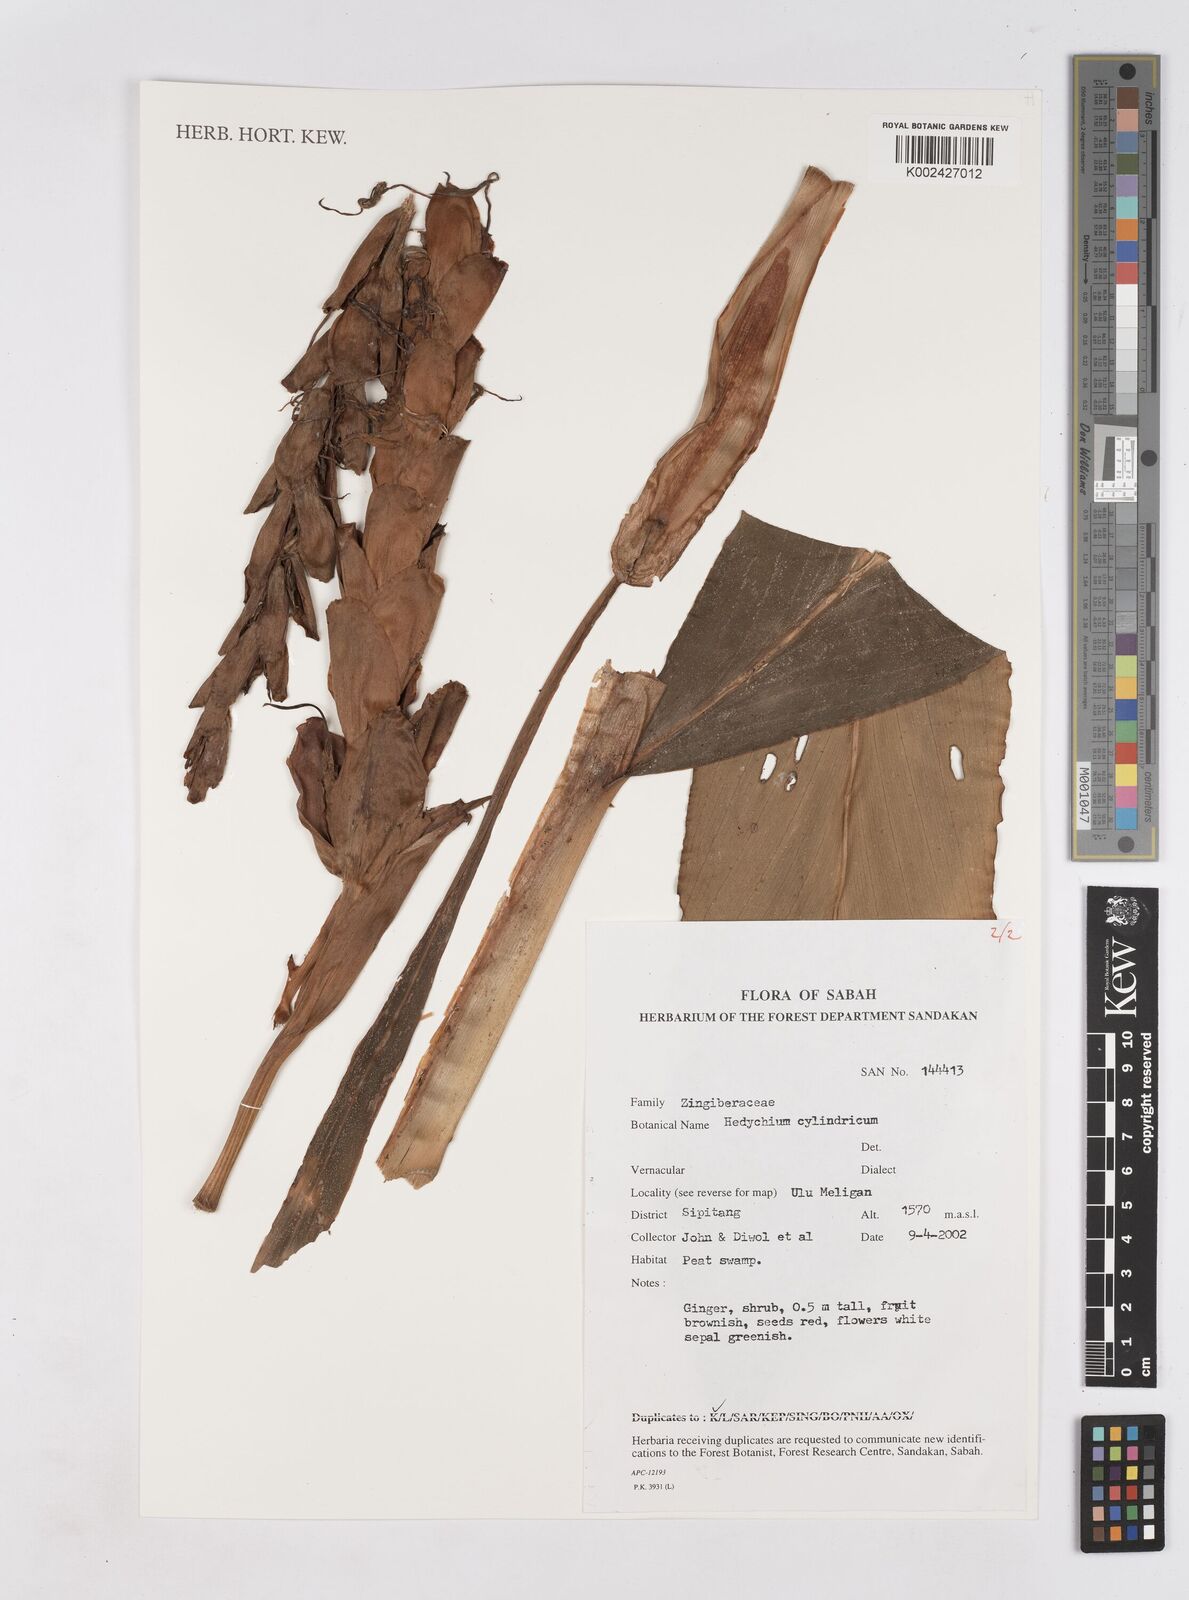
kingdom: Plantae
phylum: Tracheophyta
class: Liliopsida
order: Zingiberales
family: Zingiberaceae
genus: Hedychium
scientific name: Hedychium cylindricum
